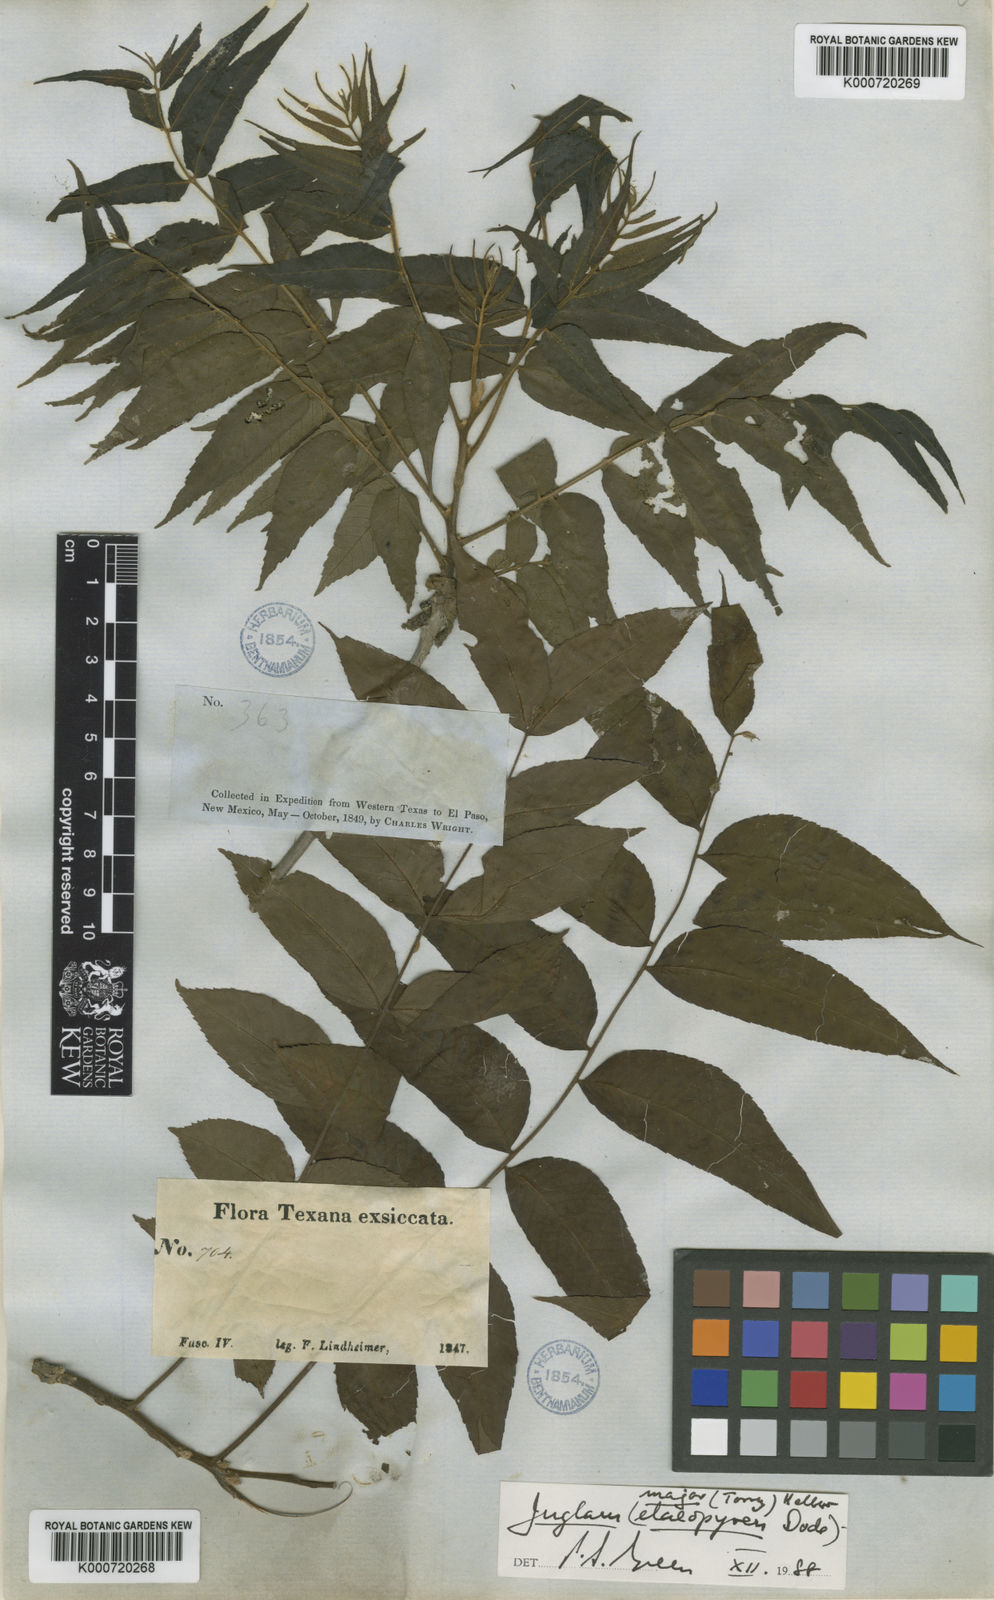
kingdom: Plantae
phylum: Tracheophyta
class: Magnoliopsida
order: Fagales
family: Juglandaceae
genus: Juglans
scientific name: Juglans microcarpa
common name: Texas walnut
